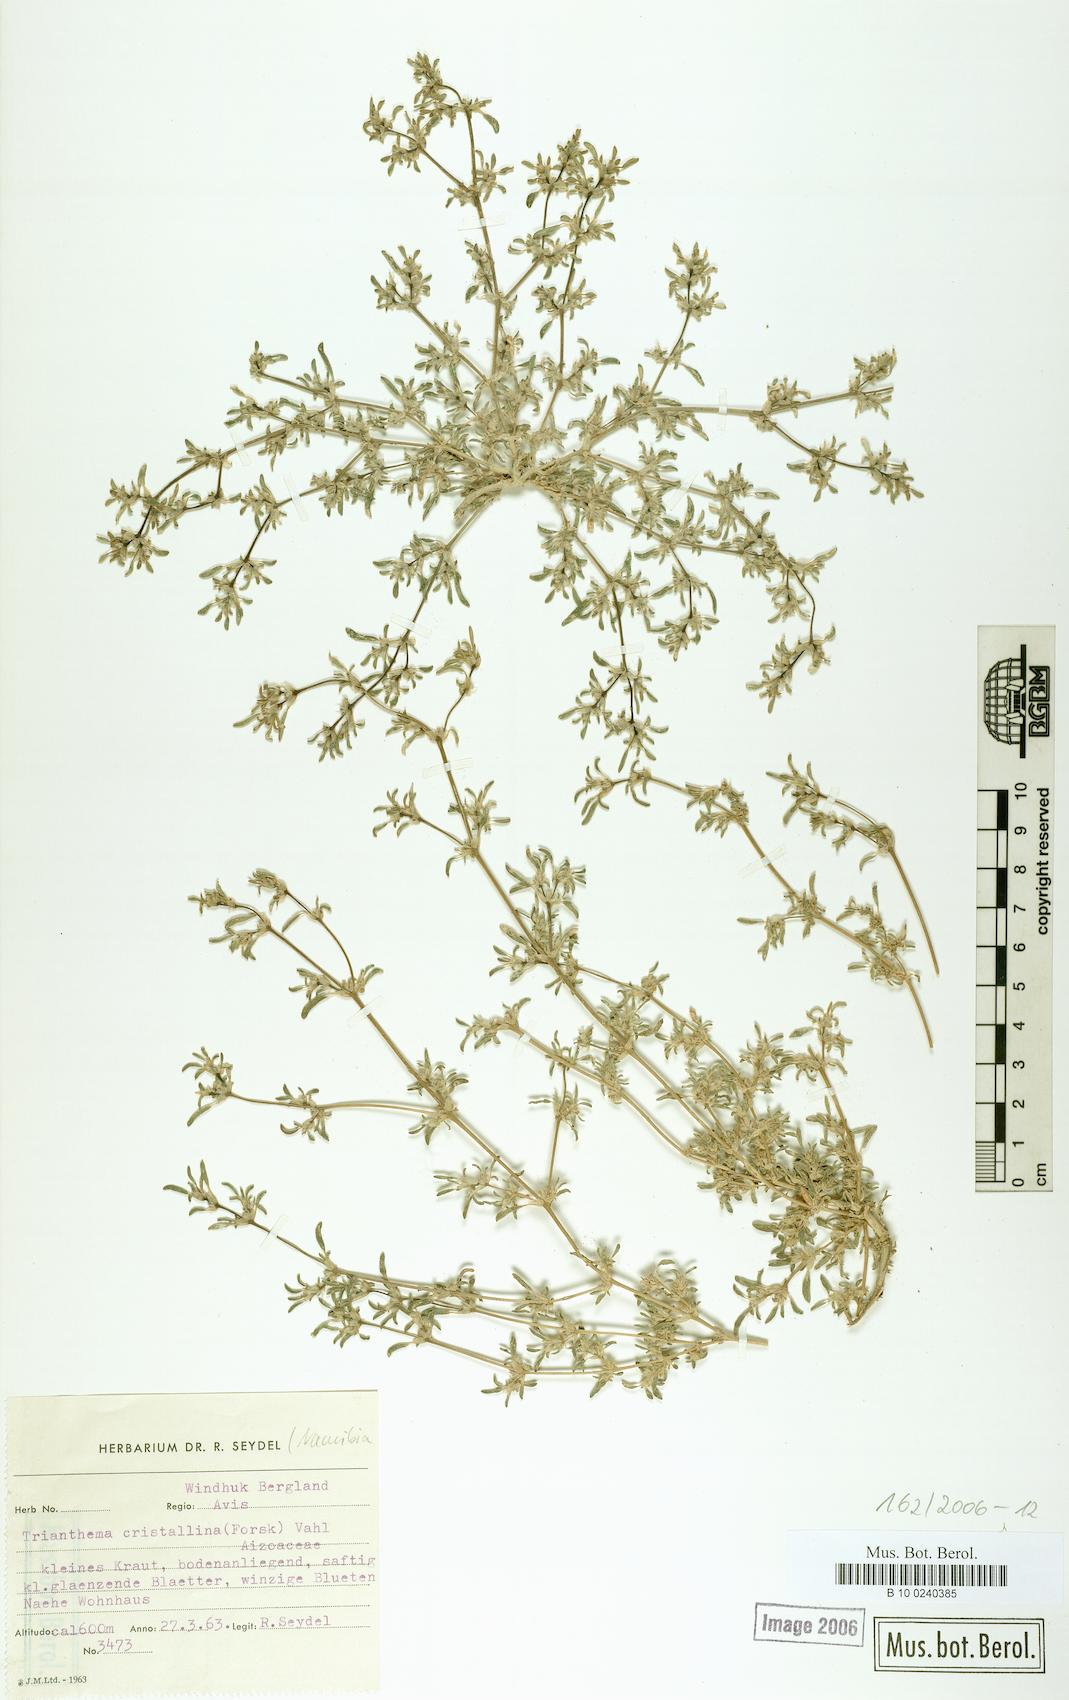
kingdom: Plantae
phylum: Tracheophyta
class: Magnoliopsida
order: Caryophyllales
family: Aizoaceae
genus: Trianthema
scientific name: Trianthema crystallinum
